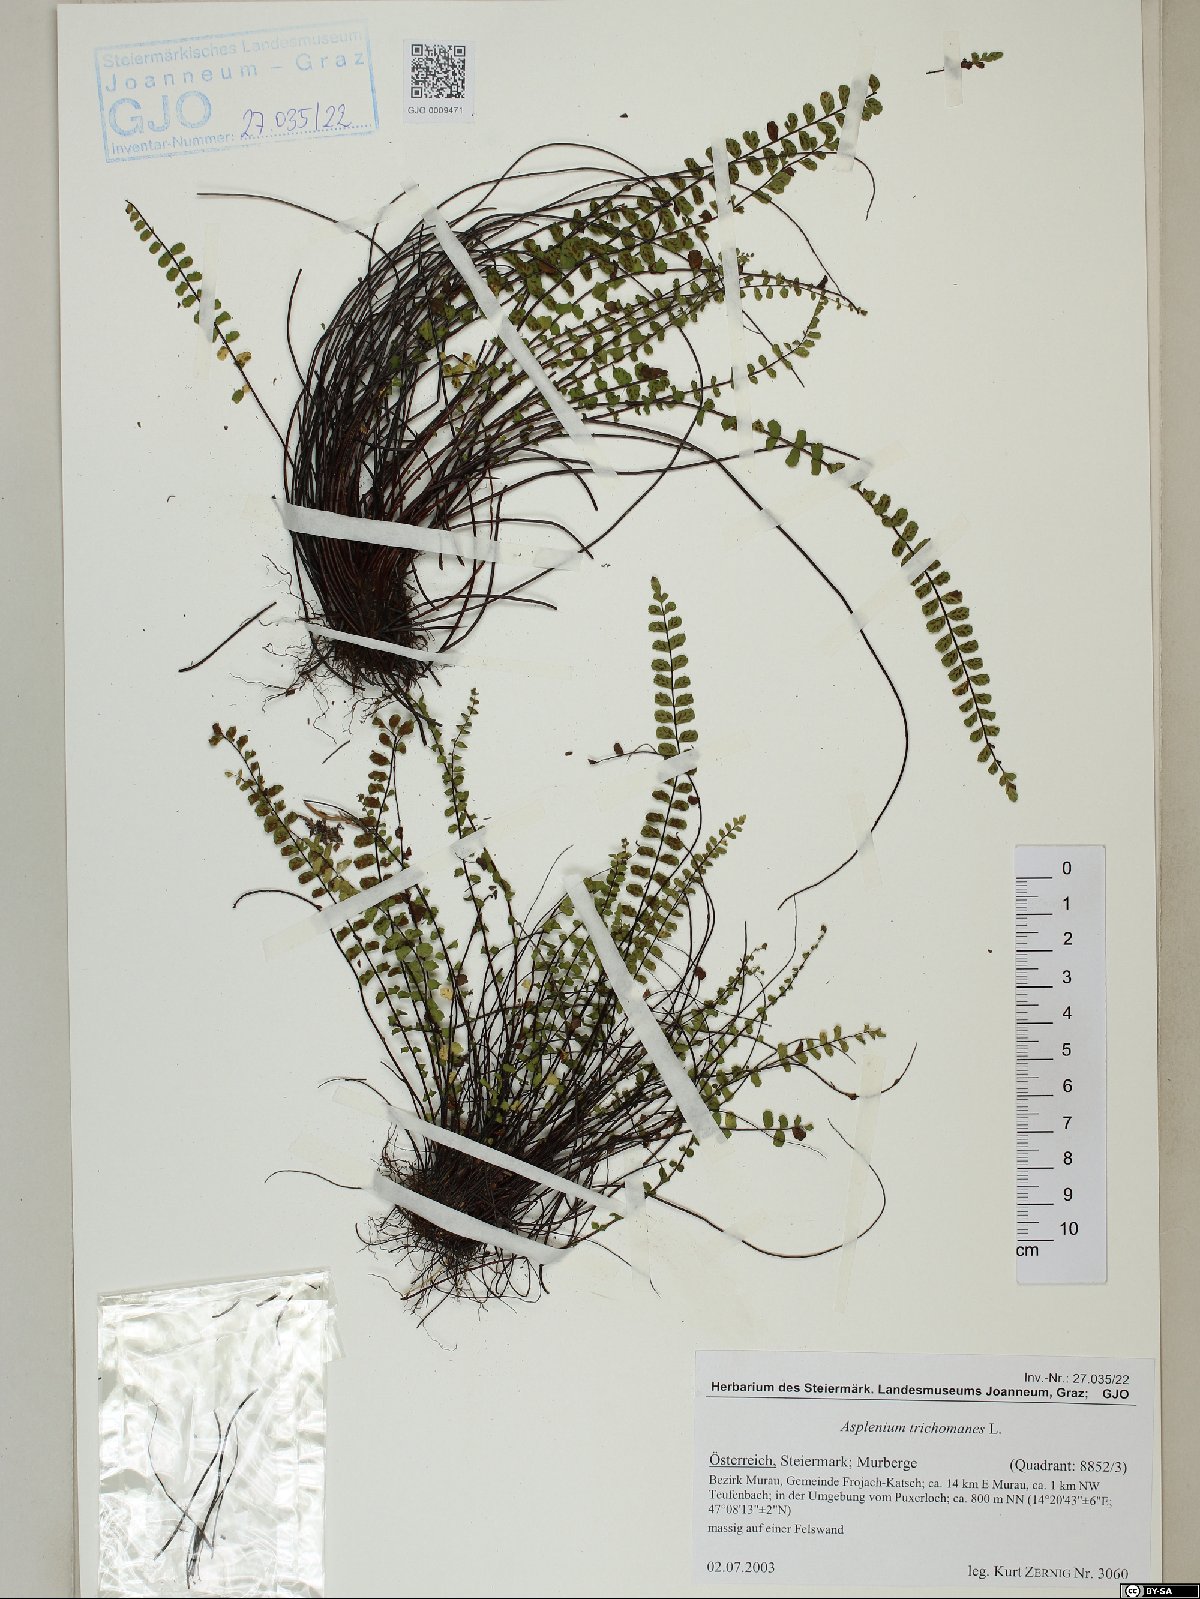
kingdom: Plantae
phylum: Tracheophyta
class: Polypodiopsida
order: Polypodiales
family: Aspleniaceae
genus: Asplenium
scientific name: Asplenium trichomanes
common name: Maidenhair spleenwort
